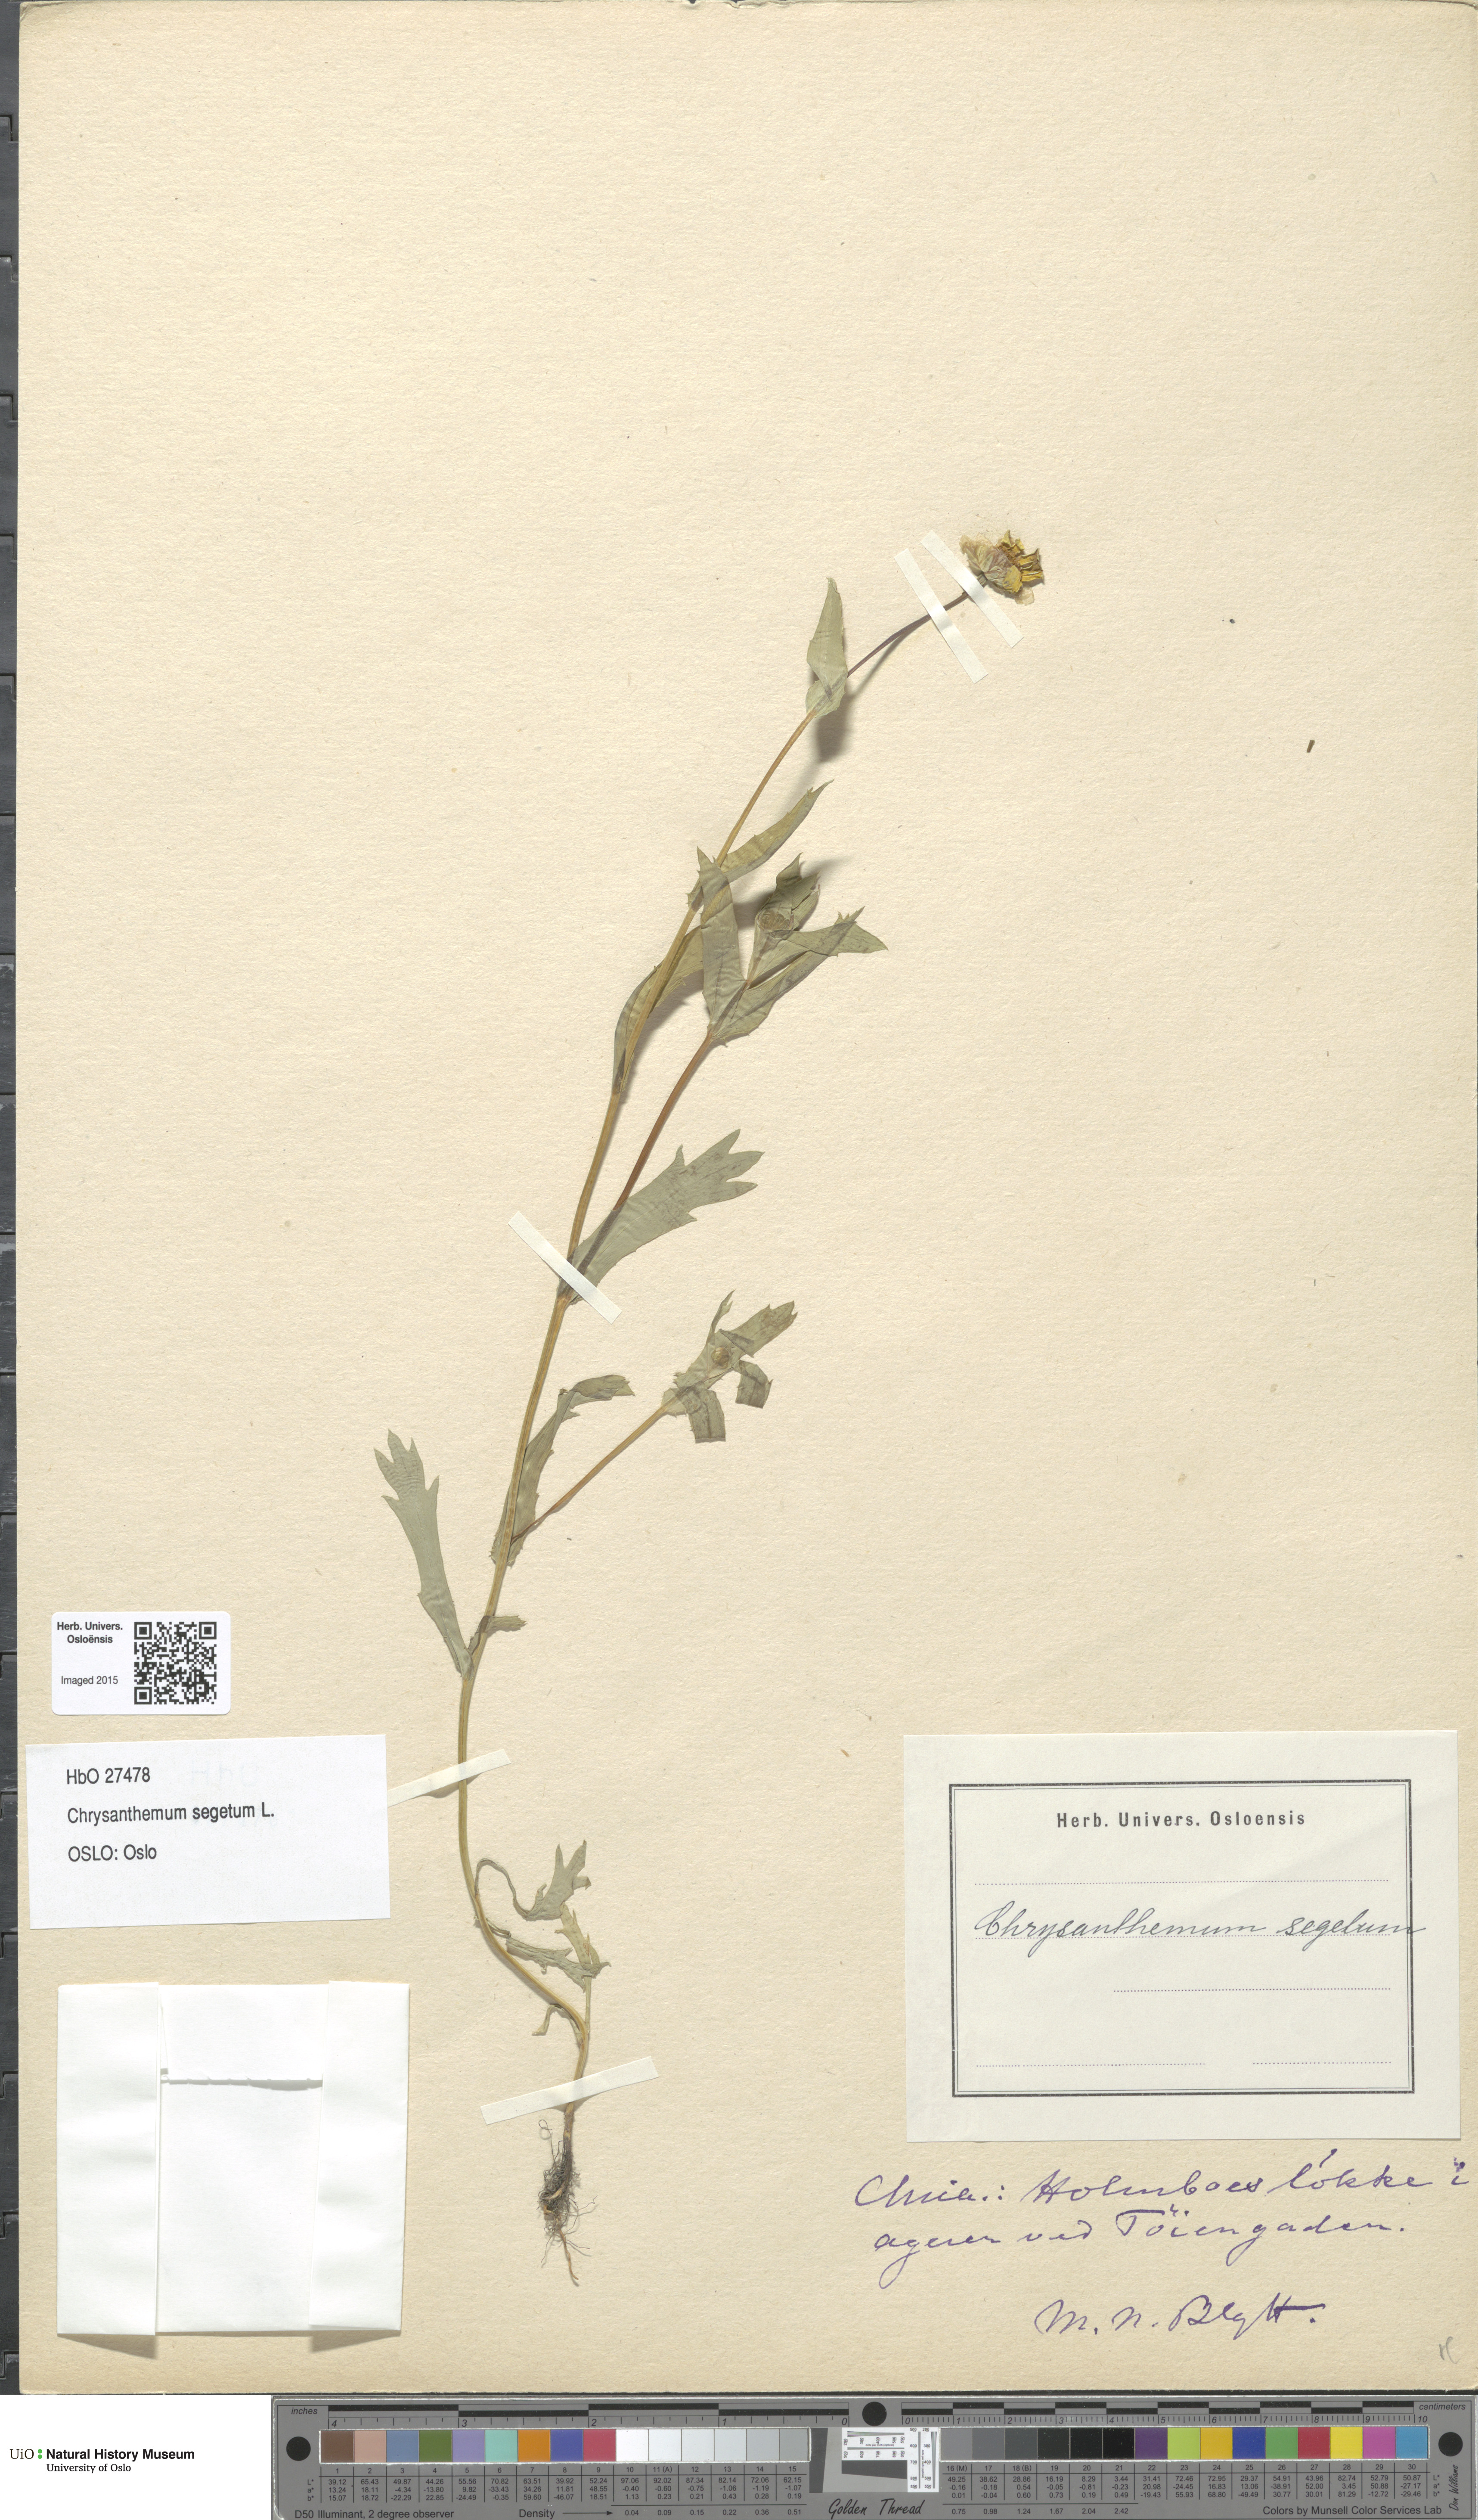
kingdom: Plantae
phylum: Tracheophyta
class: Magnoliopsida
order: Asterales
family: Asteraceae
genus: Glebionis
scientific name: Glebionis segetum
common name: Corndaisy
